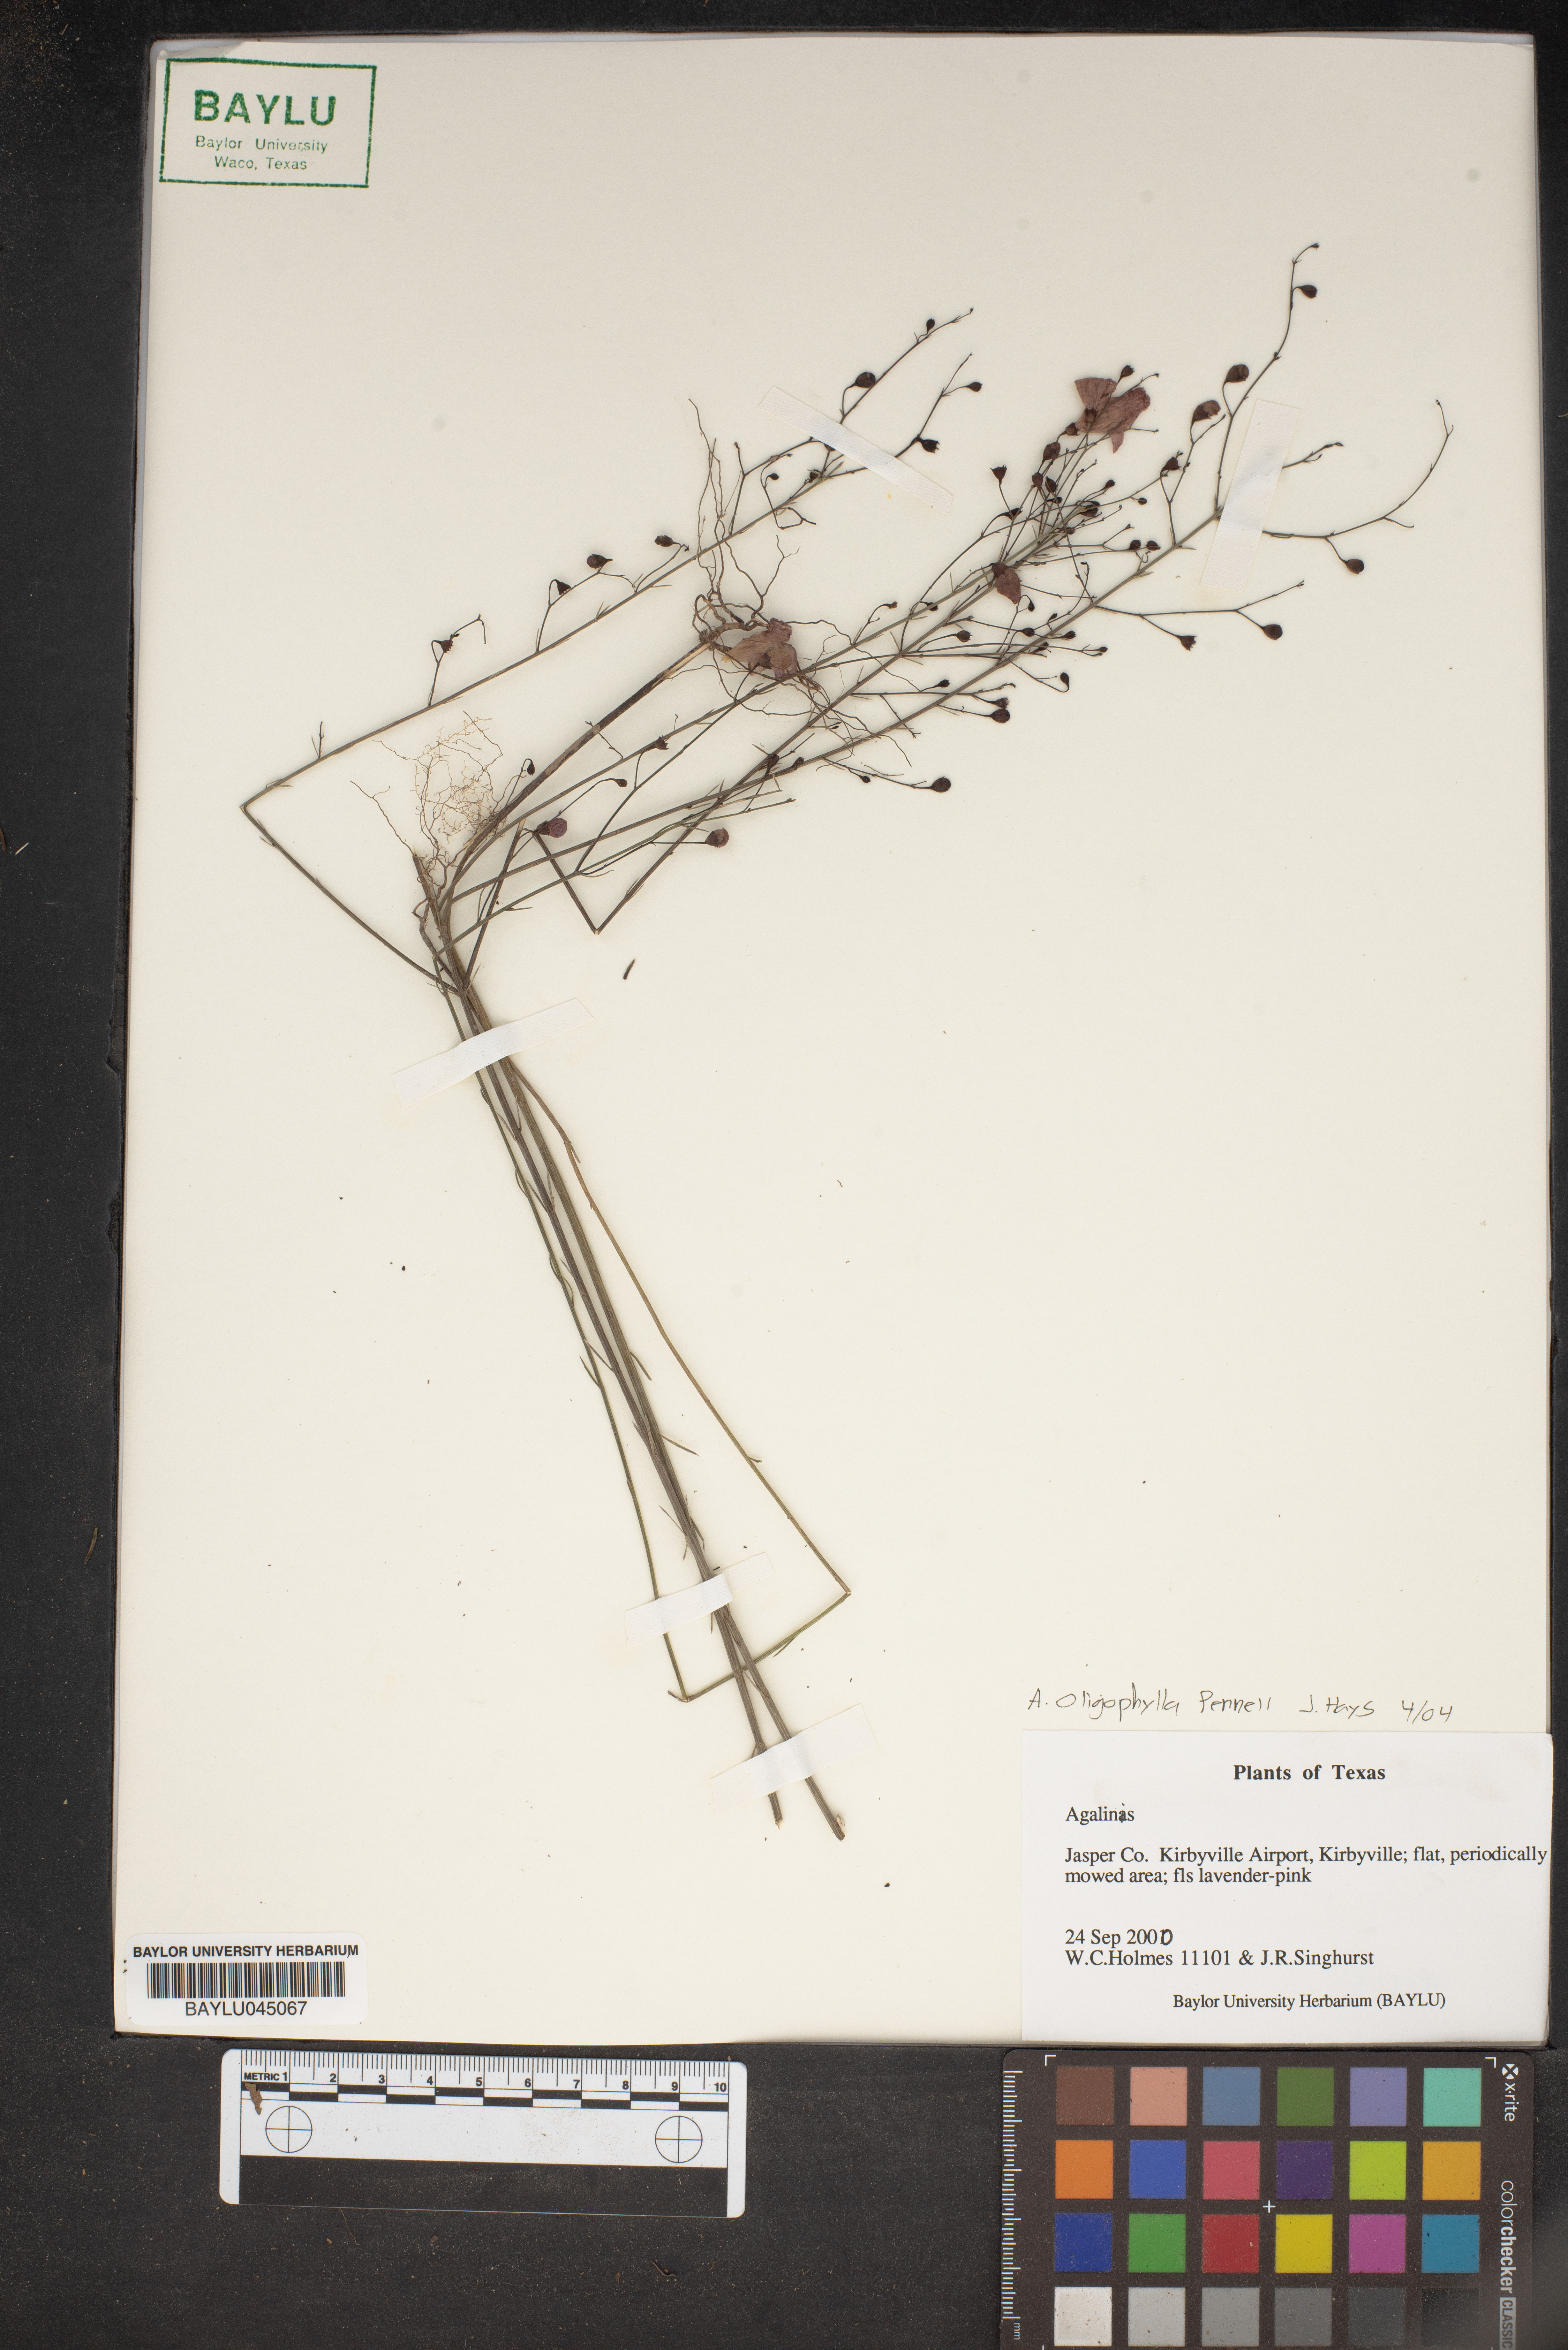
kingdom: Plantae
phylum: Tracheophyta
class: Magnoliopsida
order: Lamiales
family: Orobanchaceae
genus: Agalinis
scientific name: Agalinis
